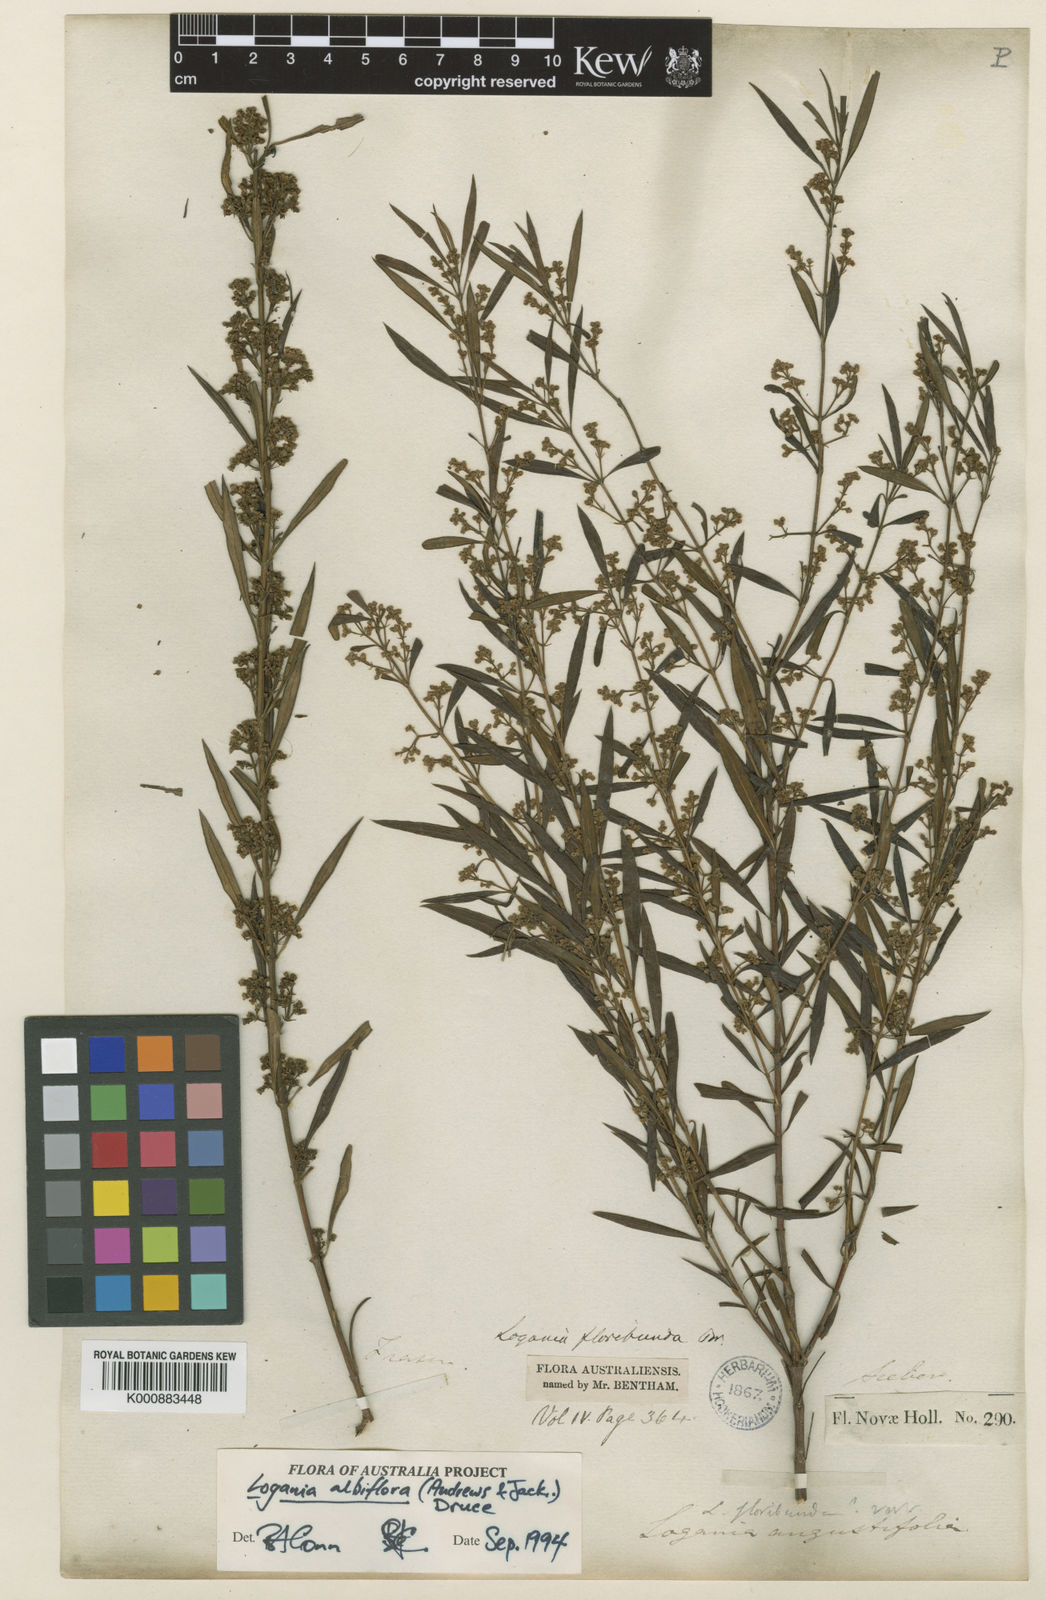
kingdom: Plantae
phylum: Tracheophyta
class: Magnoliopsida
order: Gentianales
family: Loganiaceae
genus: Logania
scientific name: Logania albiflora
